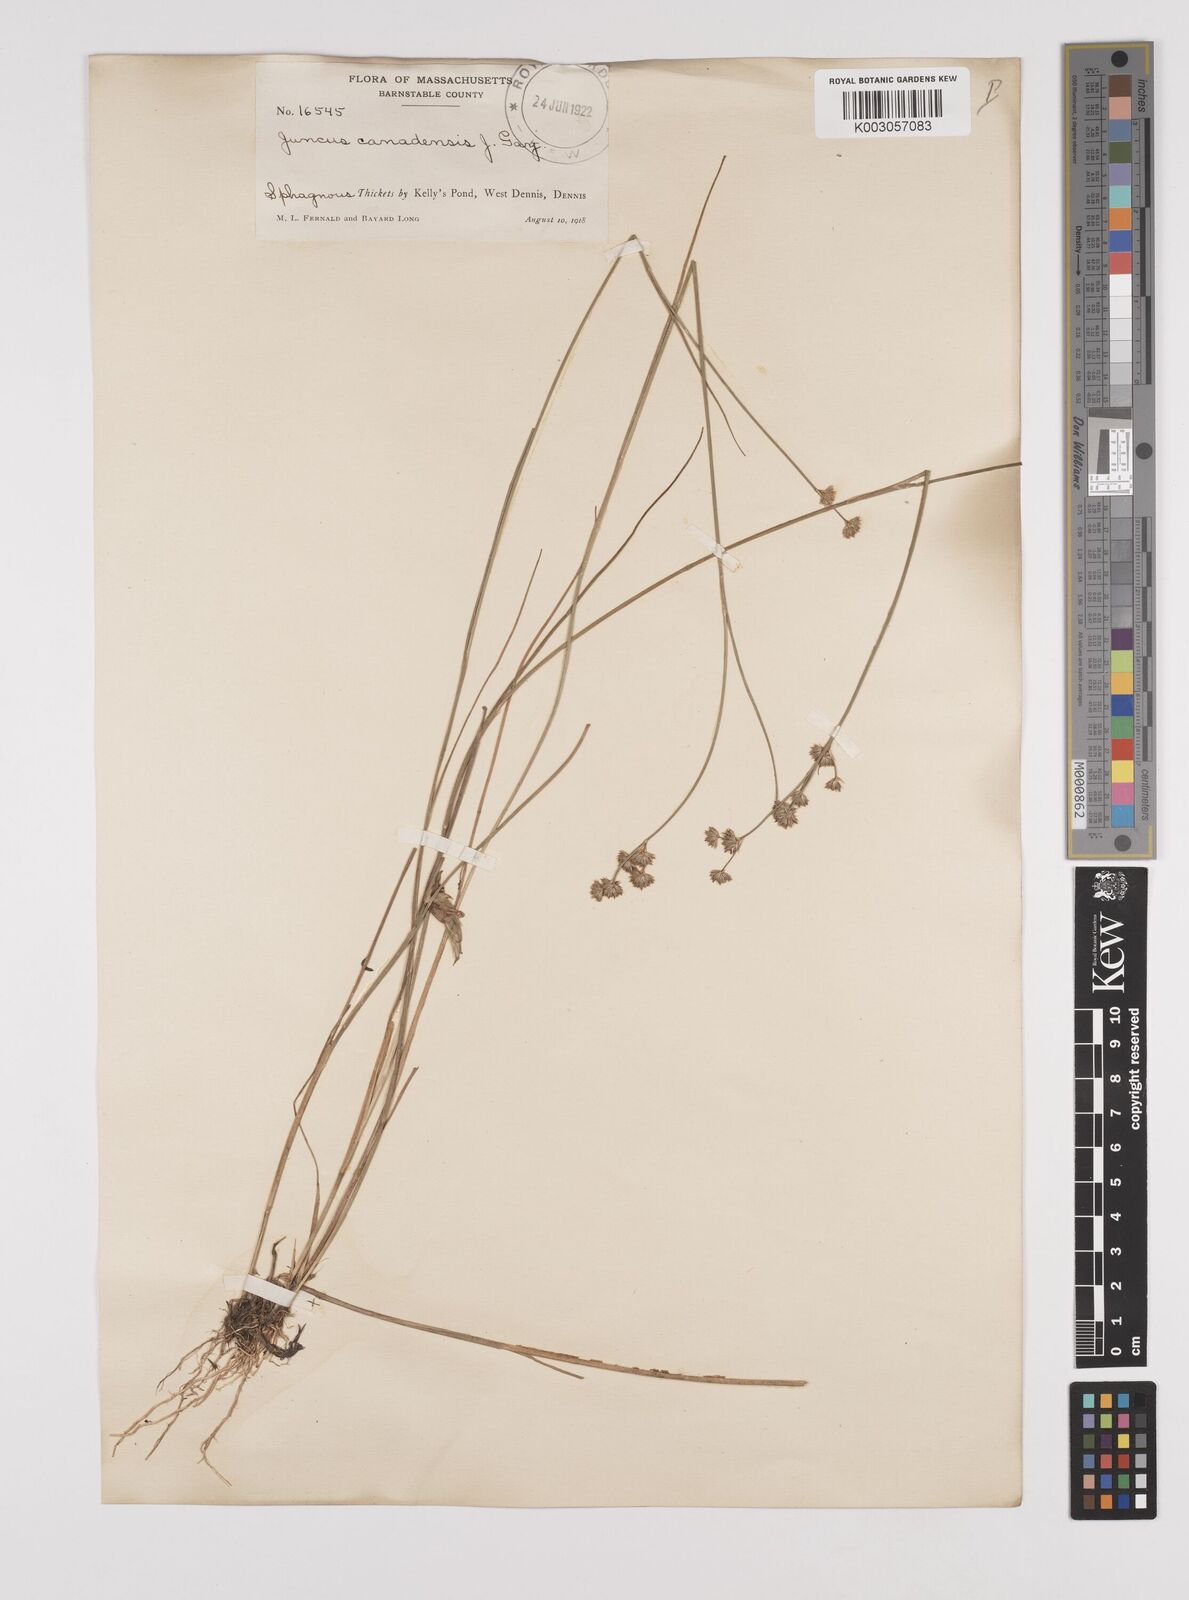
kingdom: Plantae
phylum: Tracheophyta
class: Liliopsida
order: Poales
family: Juncaceae
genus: Juncus
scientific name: Juncus canadensis
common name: Canada rush
